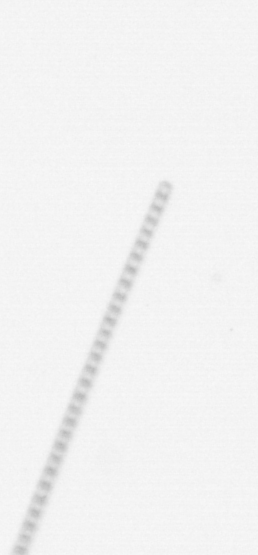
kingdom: Chromista
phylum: Ochrophyta
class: Bacillariophyceae
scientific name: Bacillariophyceae
